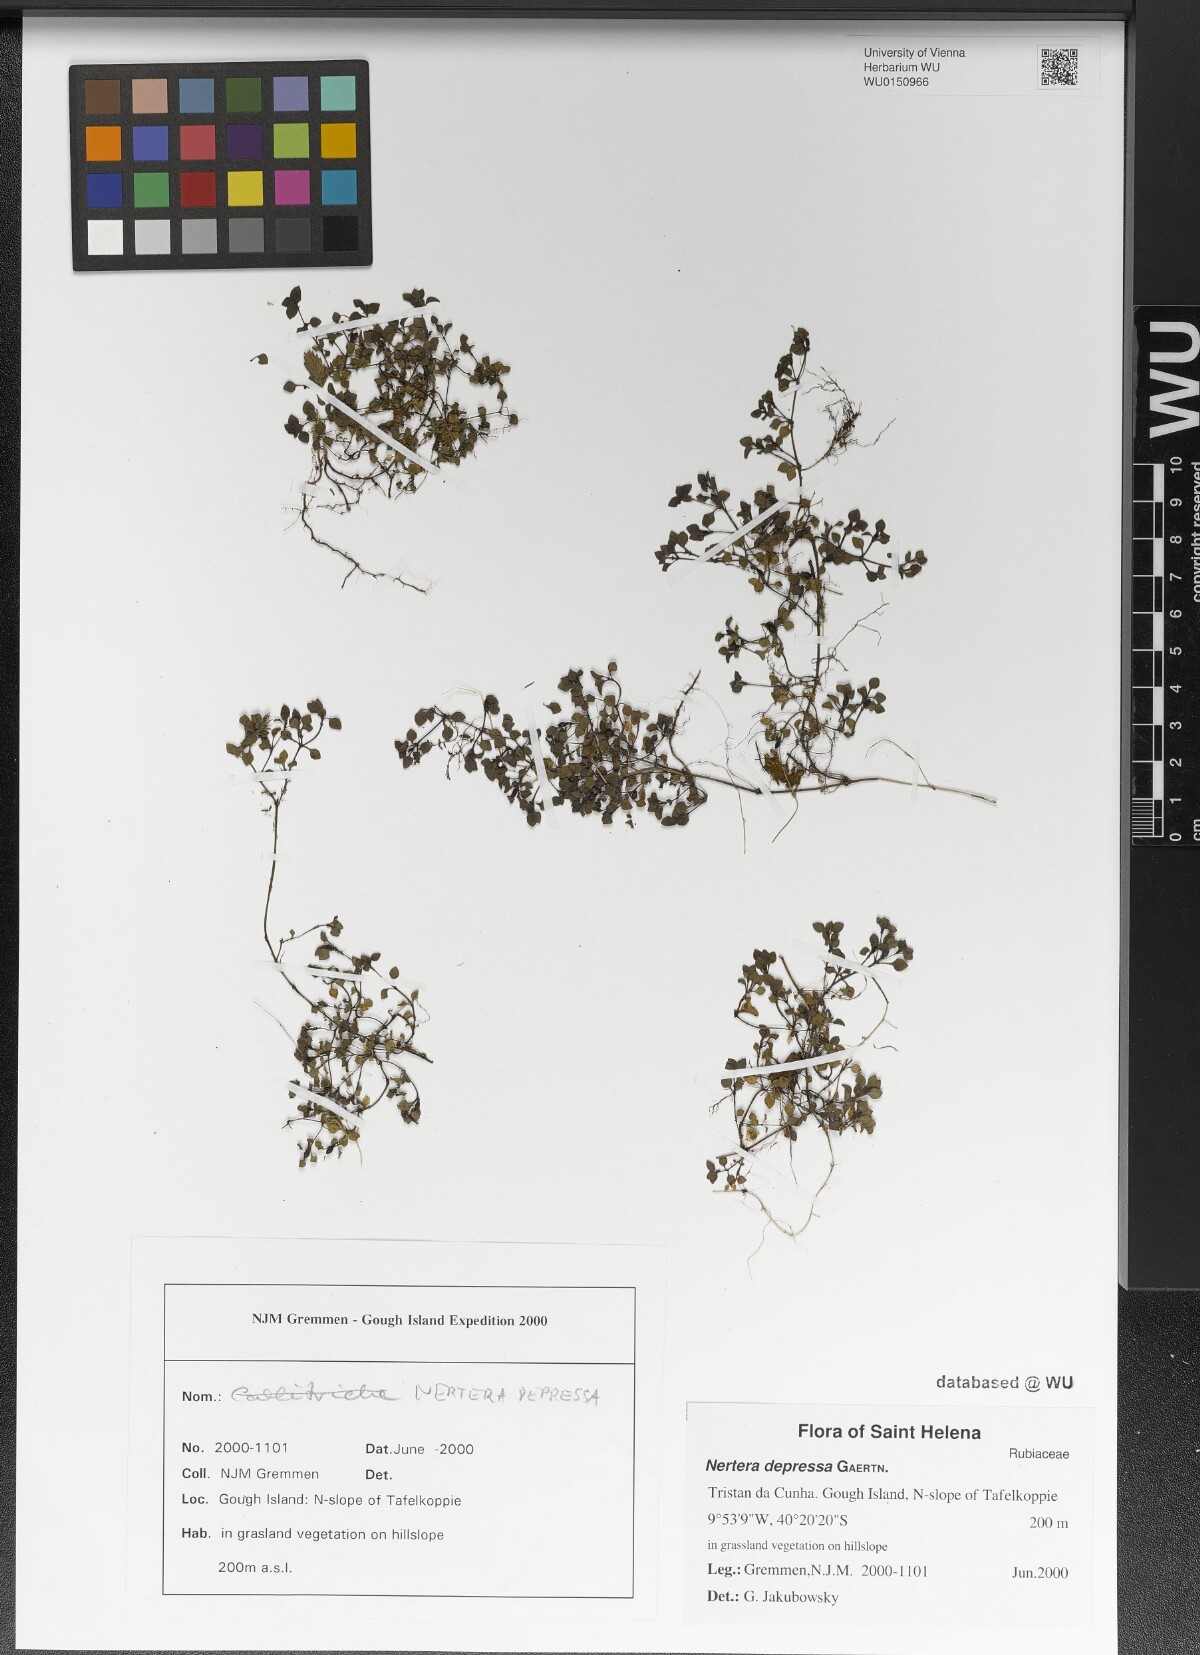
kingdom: Plantae
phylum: Tracheophyta
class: Magnoliopsida
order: Gentianales
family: Rubiaceae
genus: Nertera
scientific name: Nertera granadensis
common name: Beadplant
